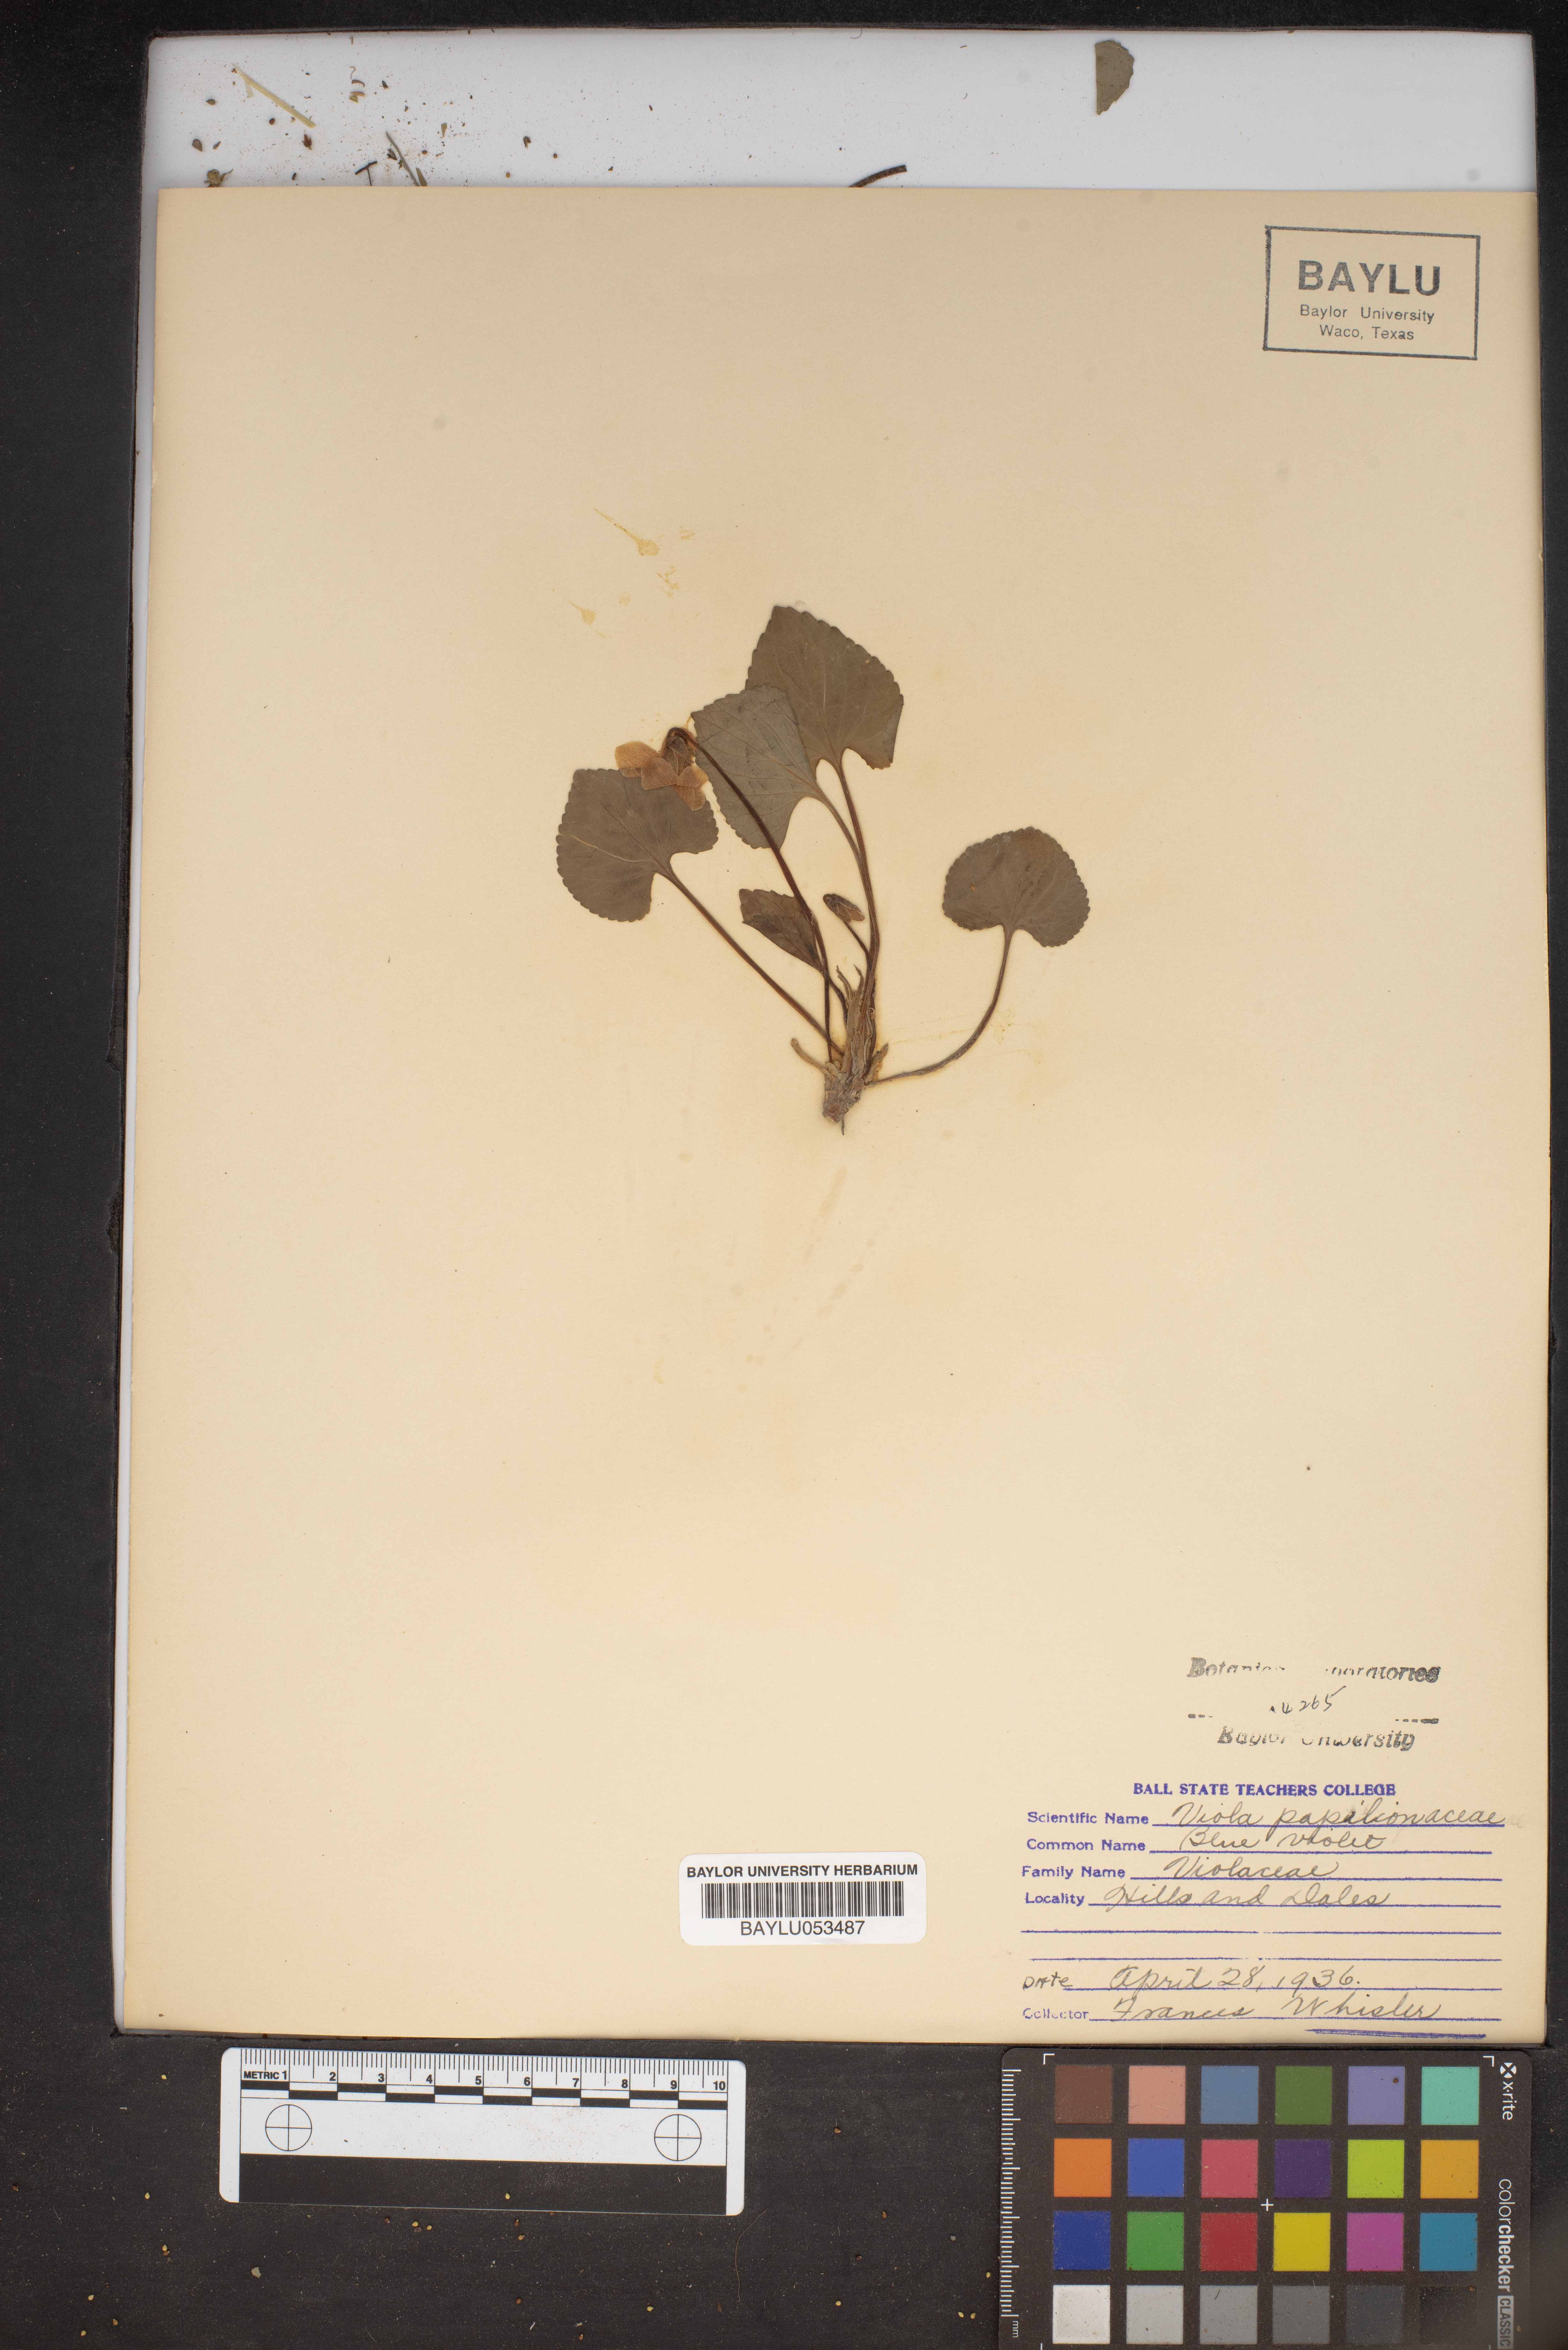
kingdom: Plantae
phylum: Tracheophyta
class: Magnoliopsida
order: Malpighiales
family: Violaceae
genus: Viola
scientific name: Viola sororia
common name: Dooryard violet
